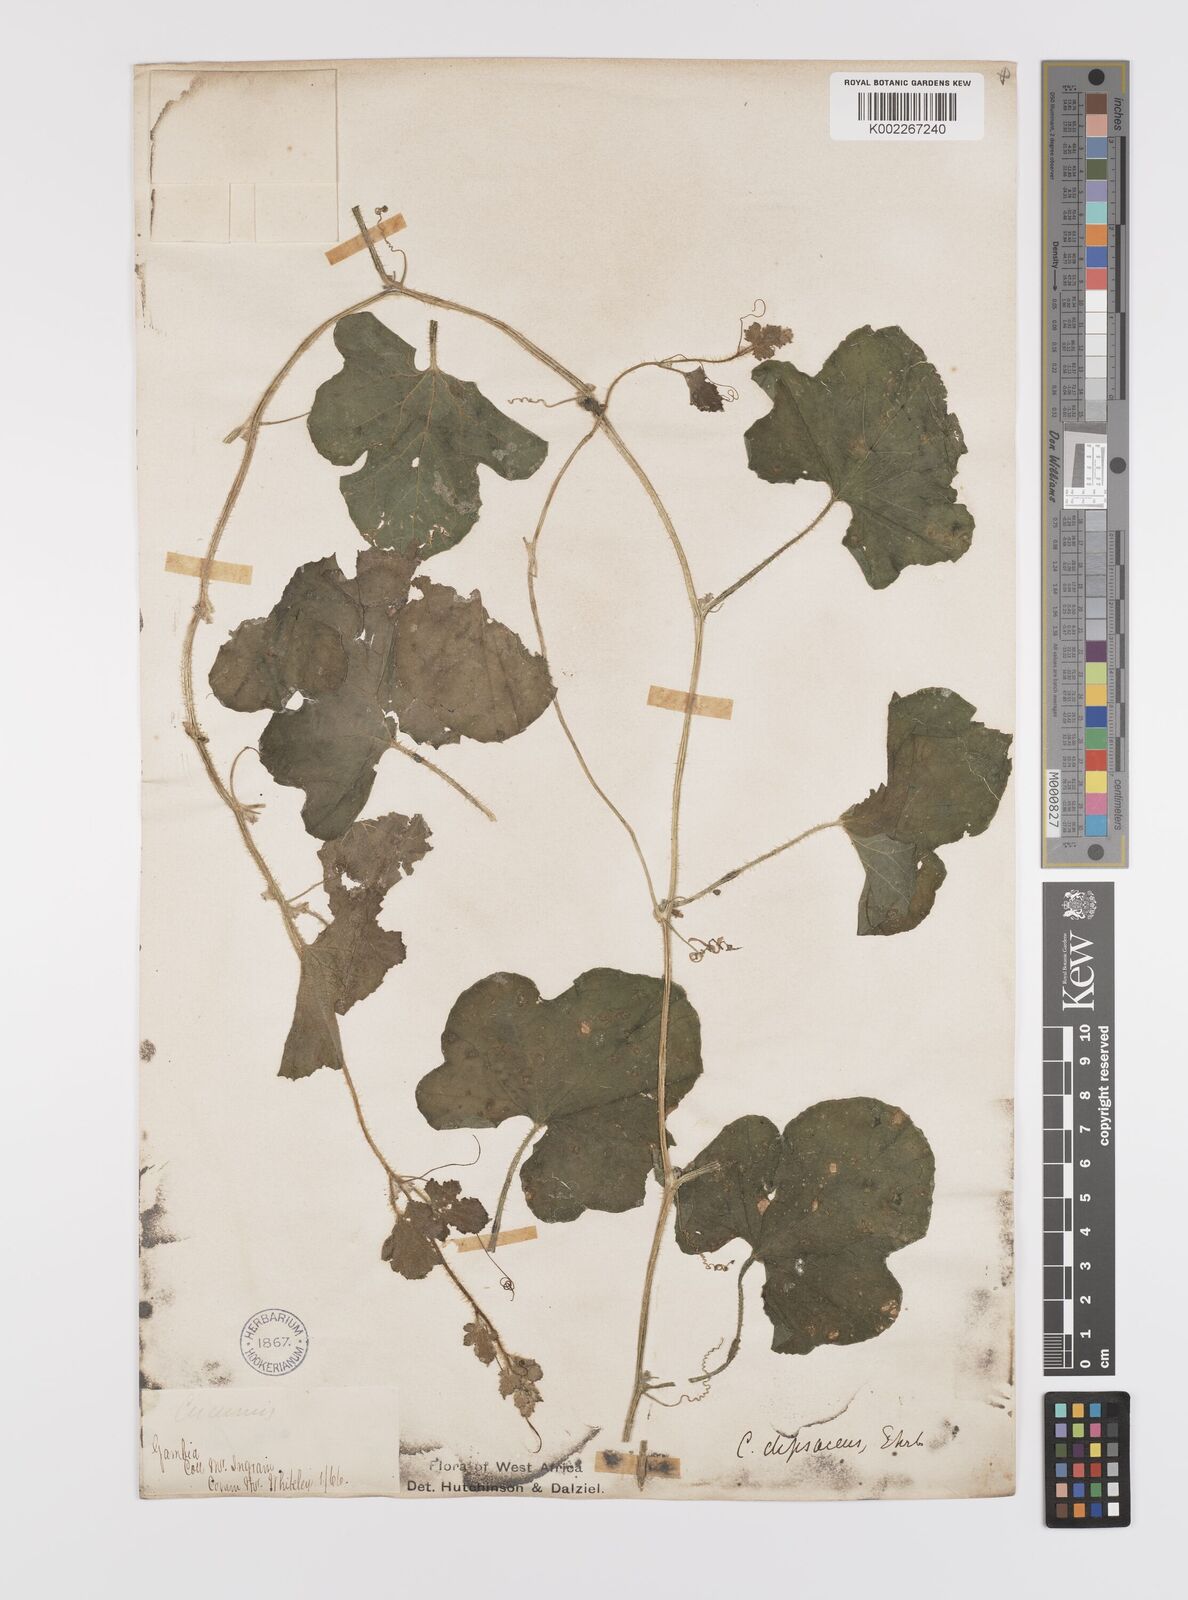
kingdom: Plantae
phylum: Tracheophyta
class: Magnoliopsida
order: Cucurbitales
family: Cucurbitaceae
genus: Cucumis
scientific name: Cucumis melo
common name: Melon
